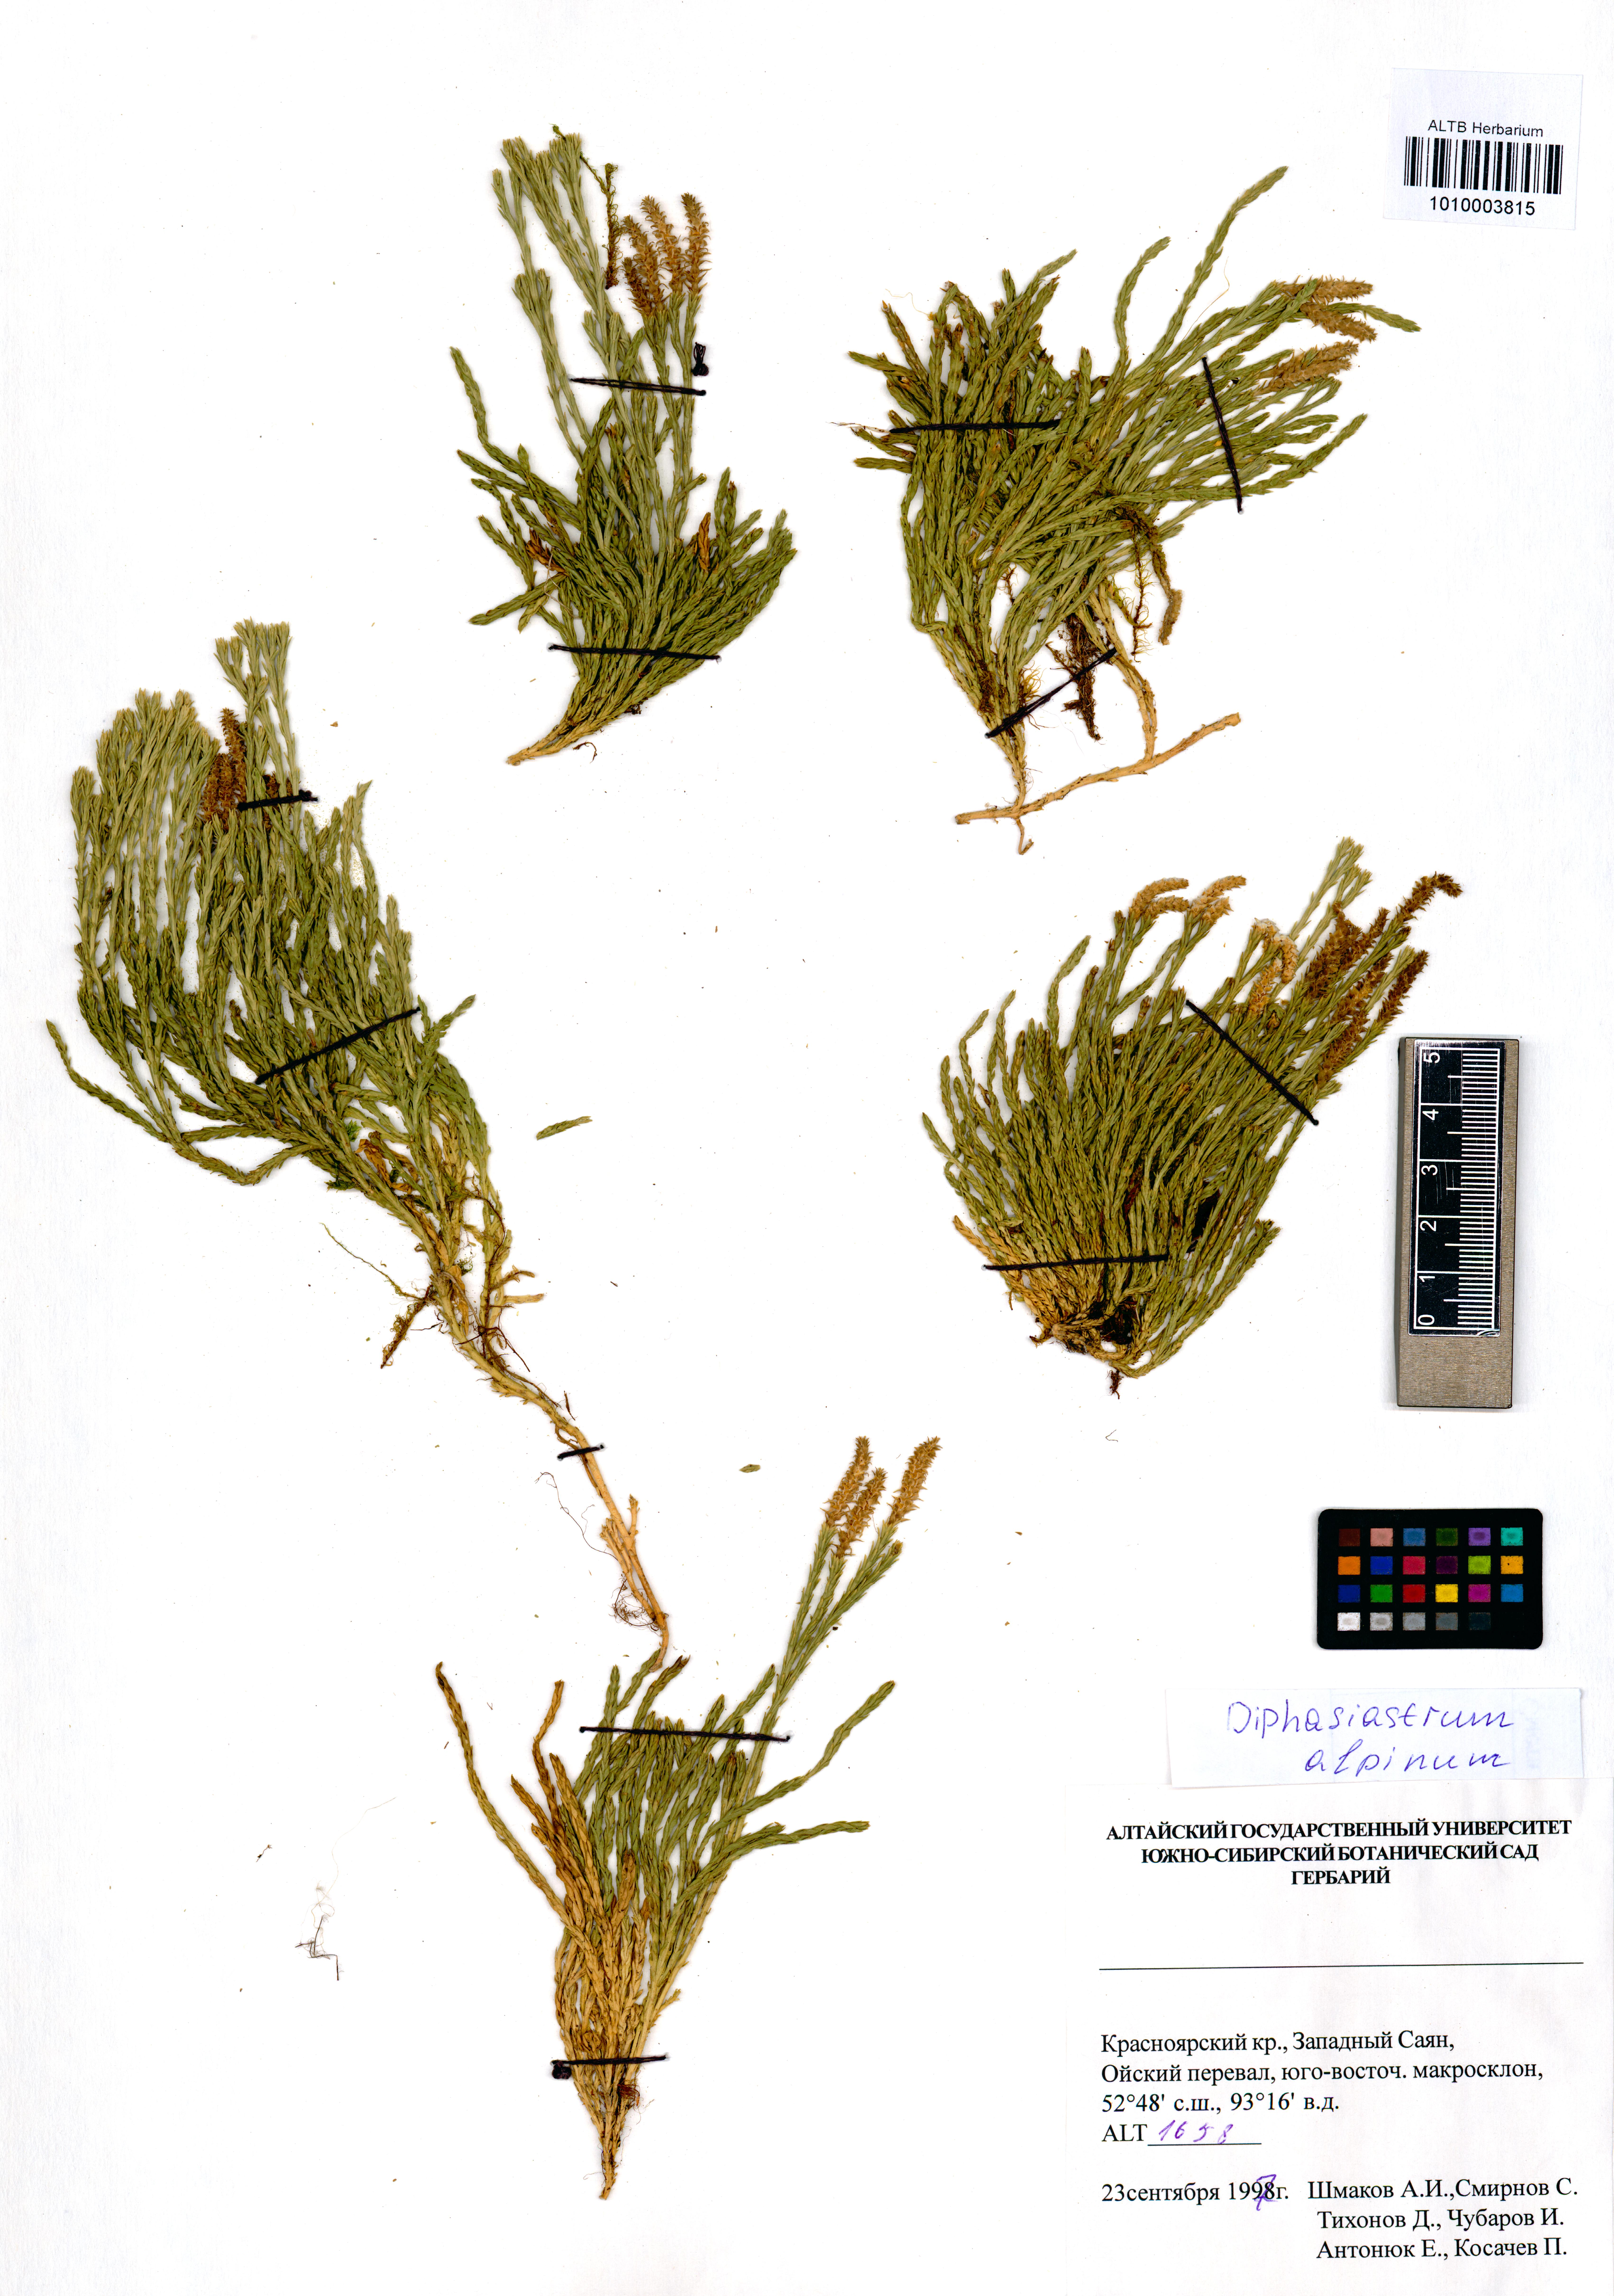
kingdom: Plantae
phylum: Tracheophyta
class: Lycopodiopsida
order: Lycopodiales
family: Lycopodiaceae
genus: Diphasiastrum
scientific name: Diphasiastrum alpinum
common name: Alpine clubmoss
